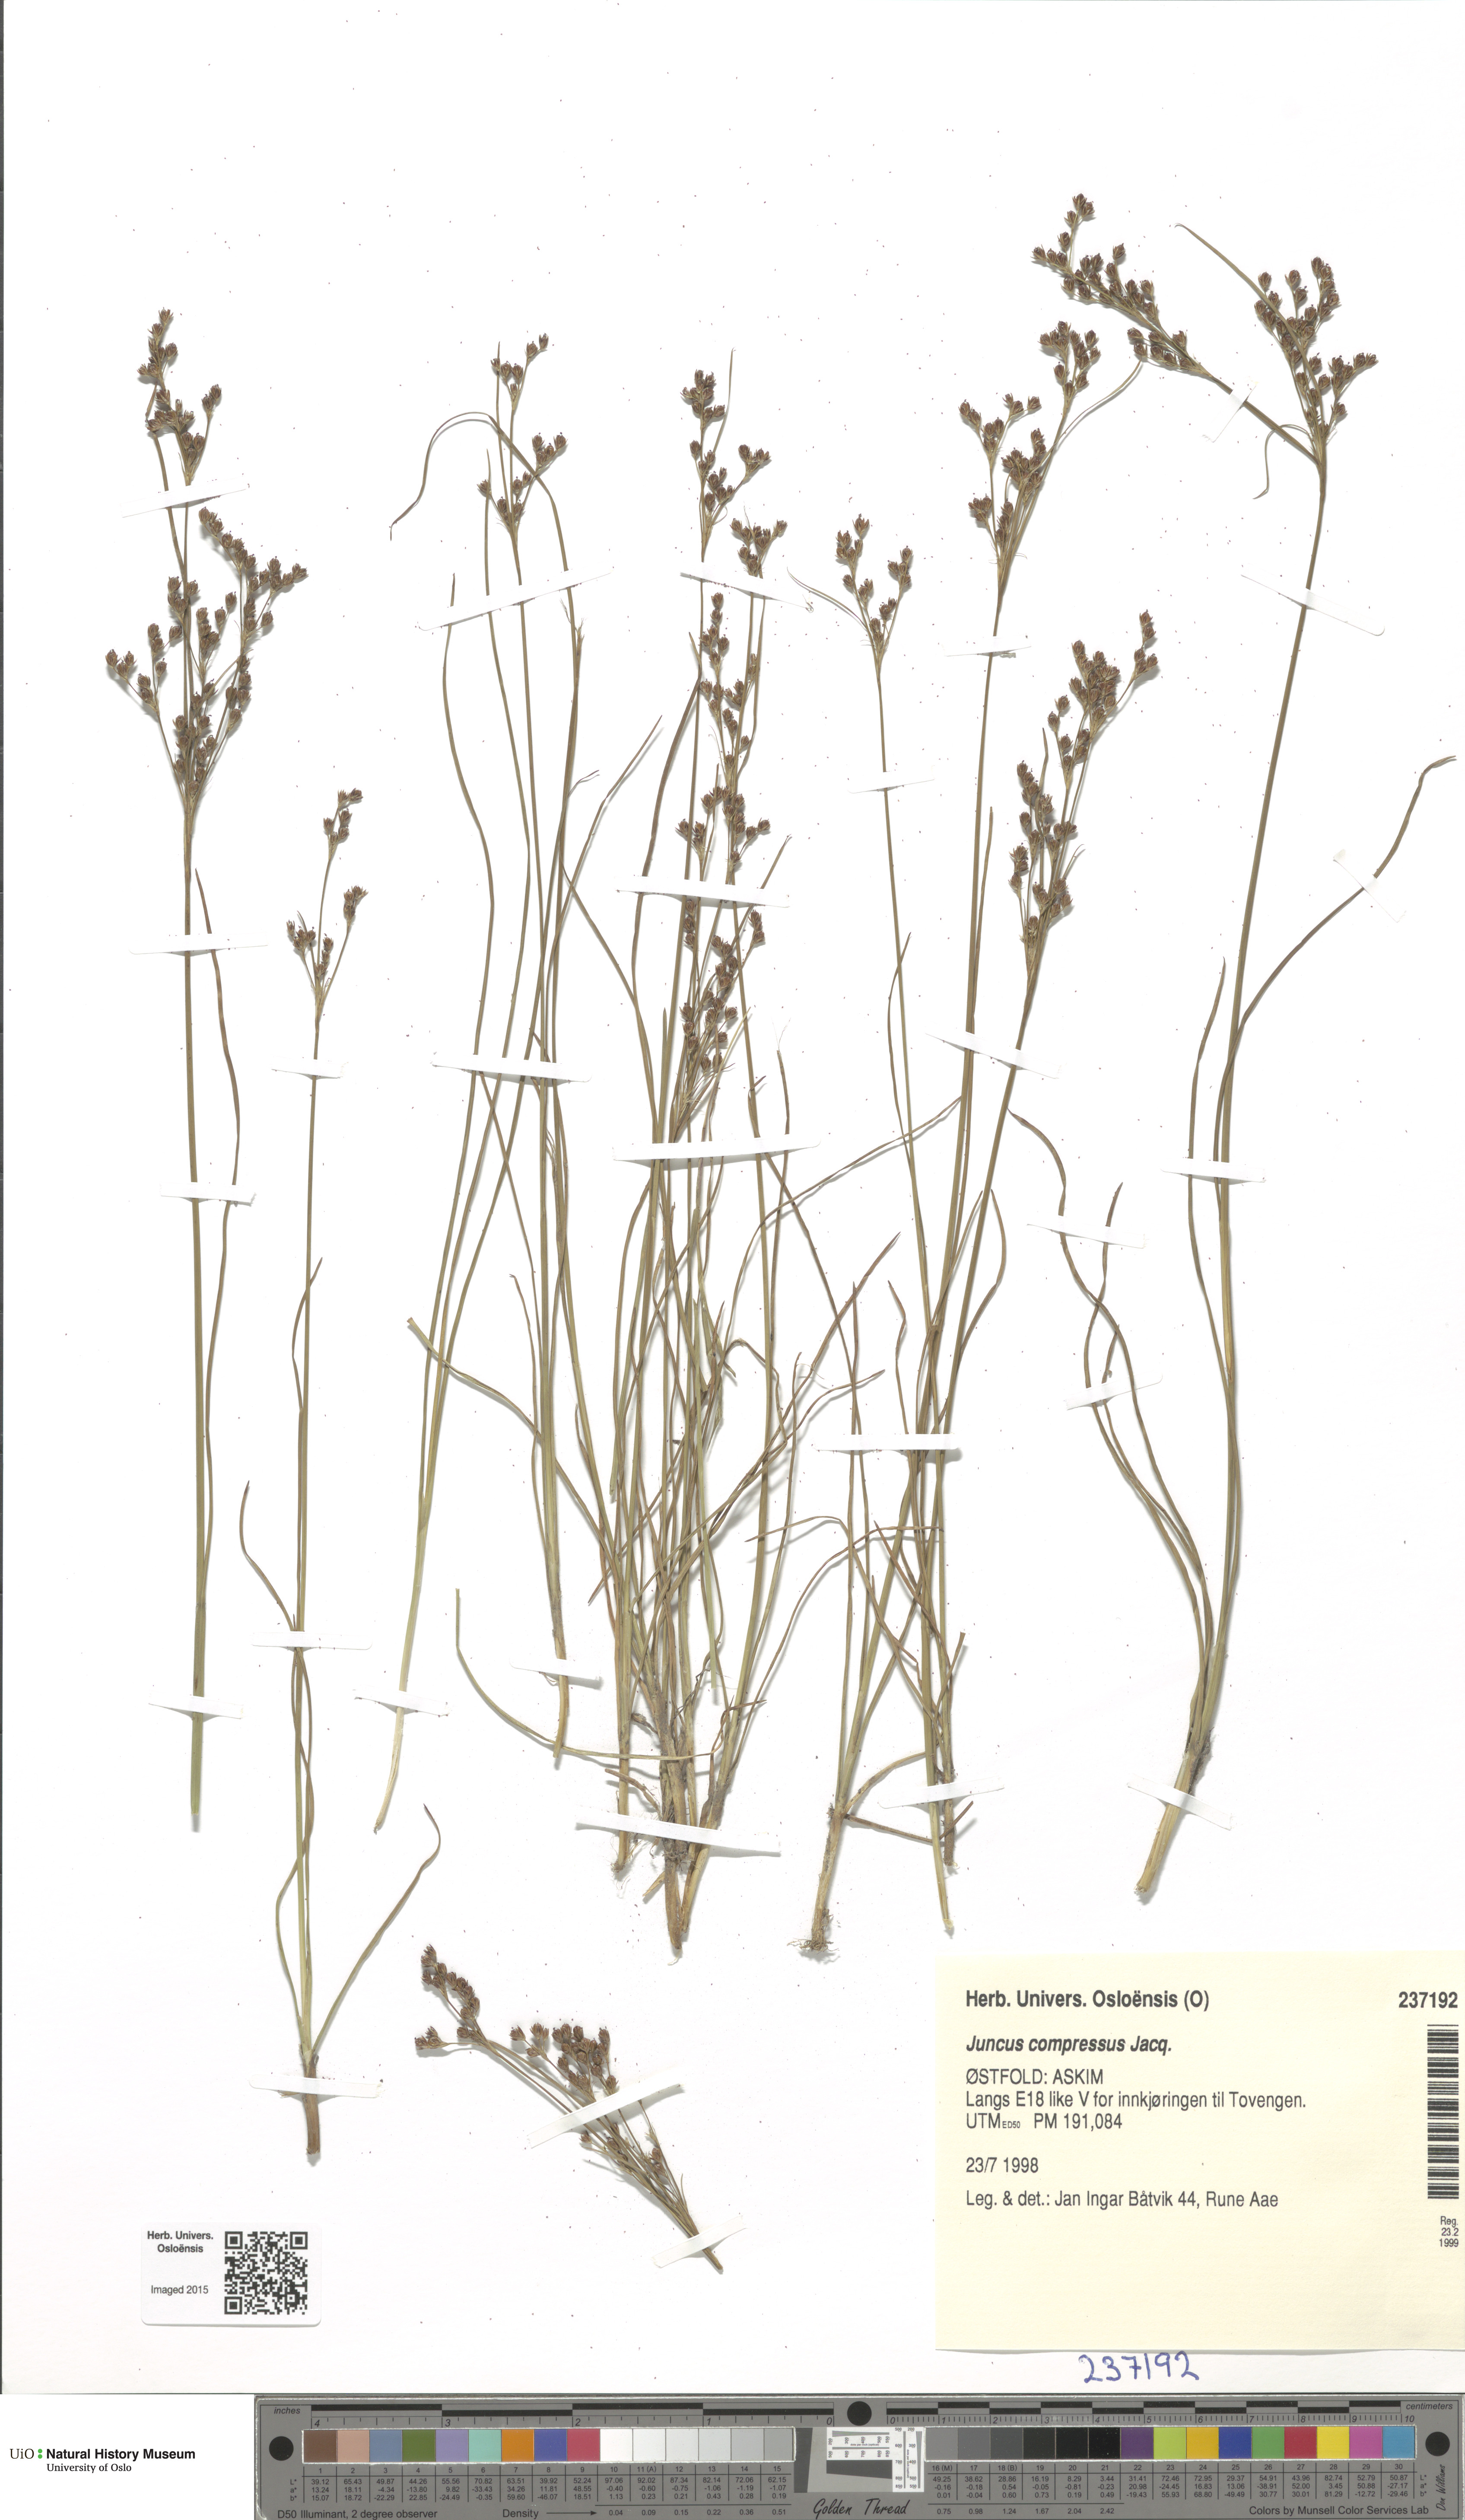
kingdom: Plantae
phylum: Tracheophyta
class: Liliopsida
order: Poales
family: Juncaceae
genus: Juncus
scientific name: Juncus compressus
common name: Round-fruited rush
